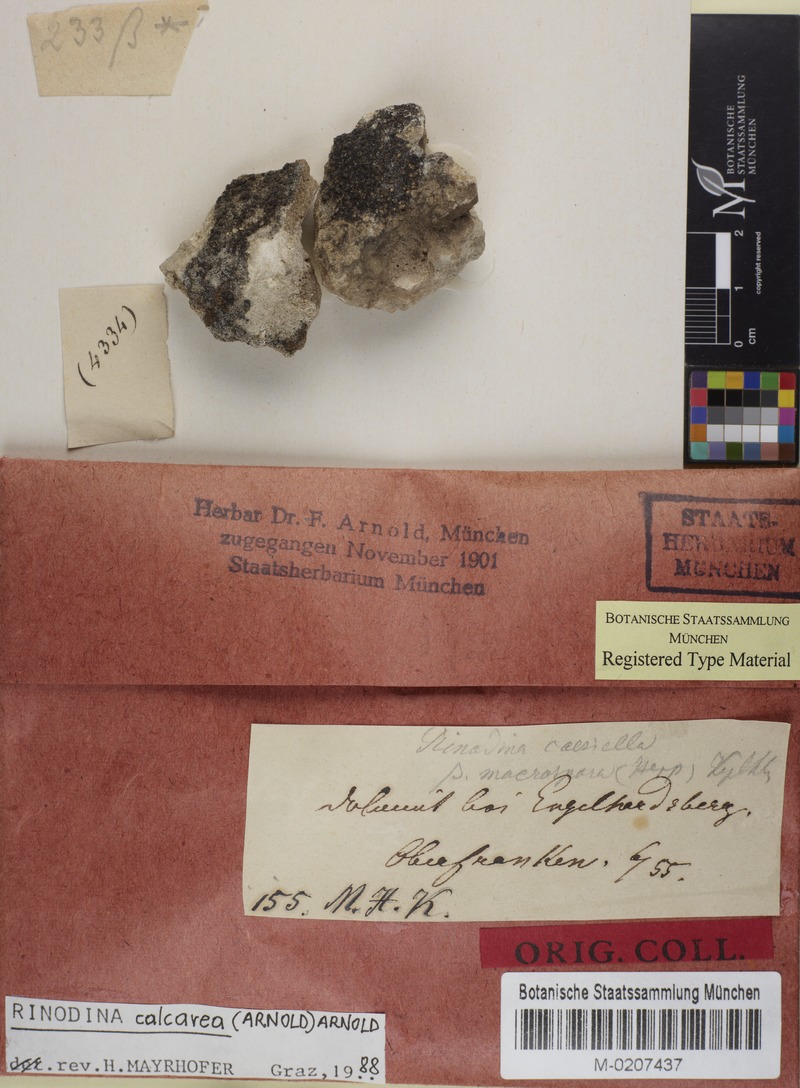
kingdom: Fungi
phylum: Ascomycota
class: Lecanoromycetes
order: Caliciales
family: Physciaceae
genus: Rinodina
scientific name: Rinodina calcarea
